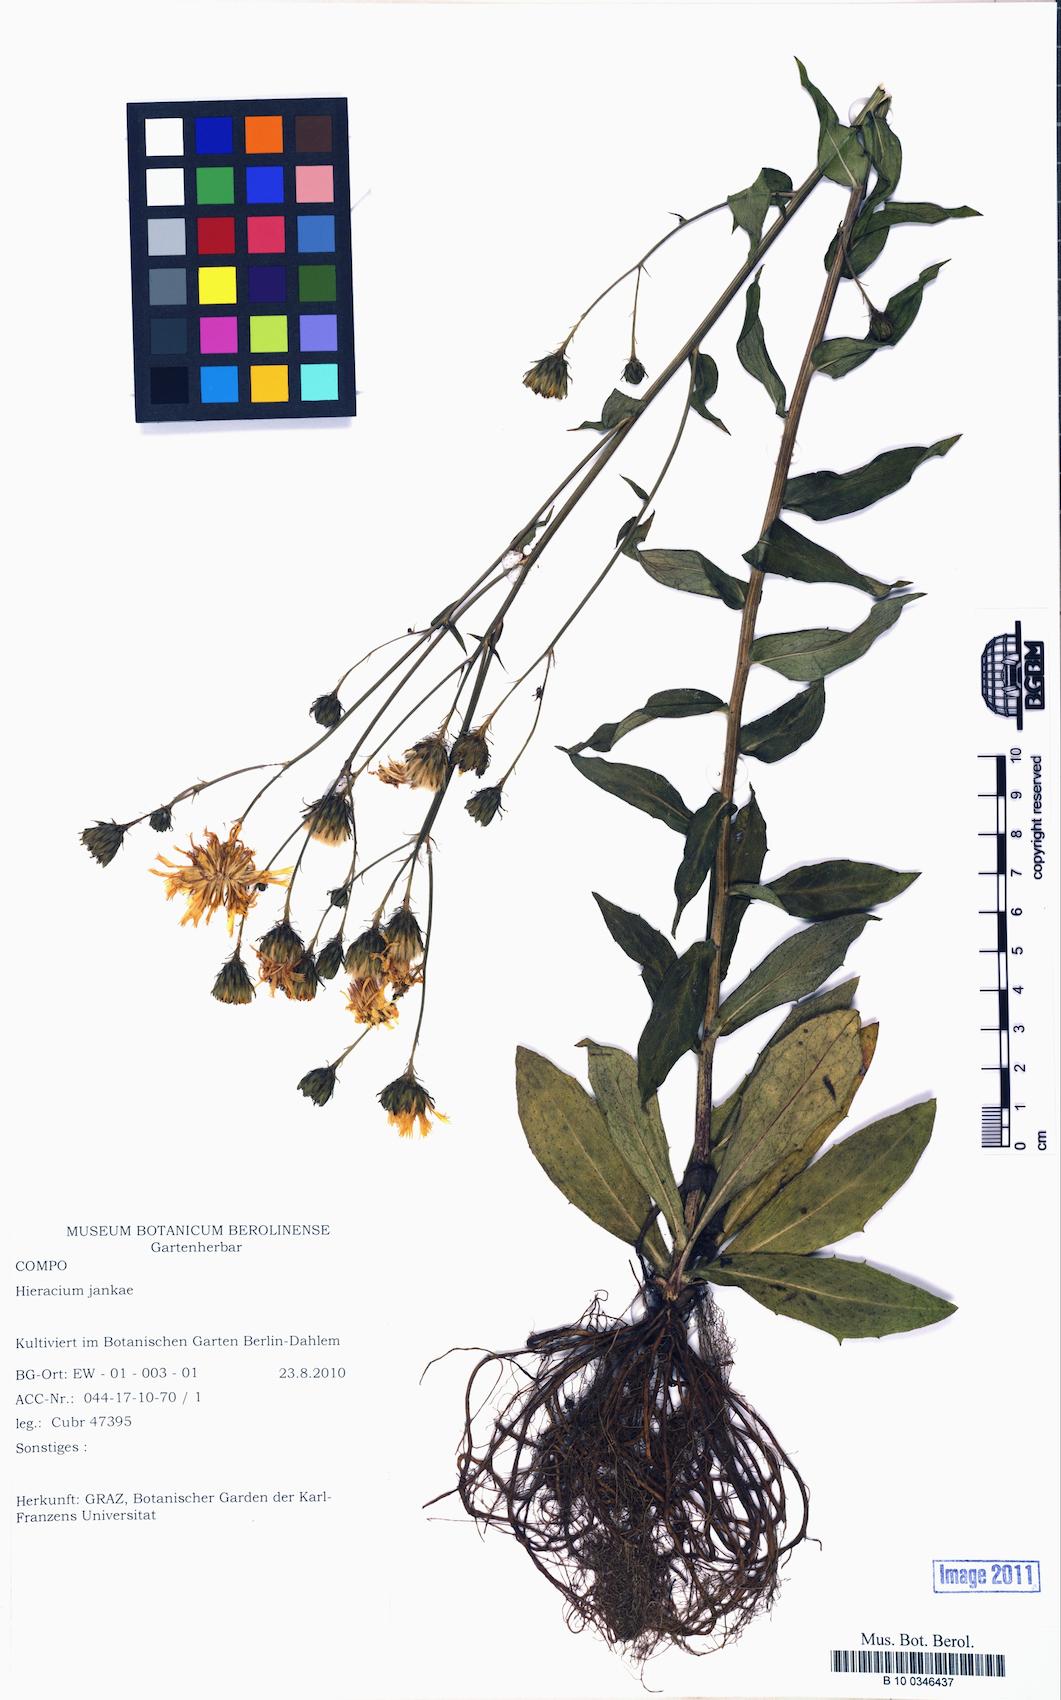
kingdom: Plantae
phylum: Tracheophyta
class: Magnoliopsida
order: Asterales
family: Asteraceae
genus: Hieracium
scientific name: Hieracium jankae
